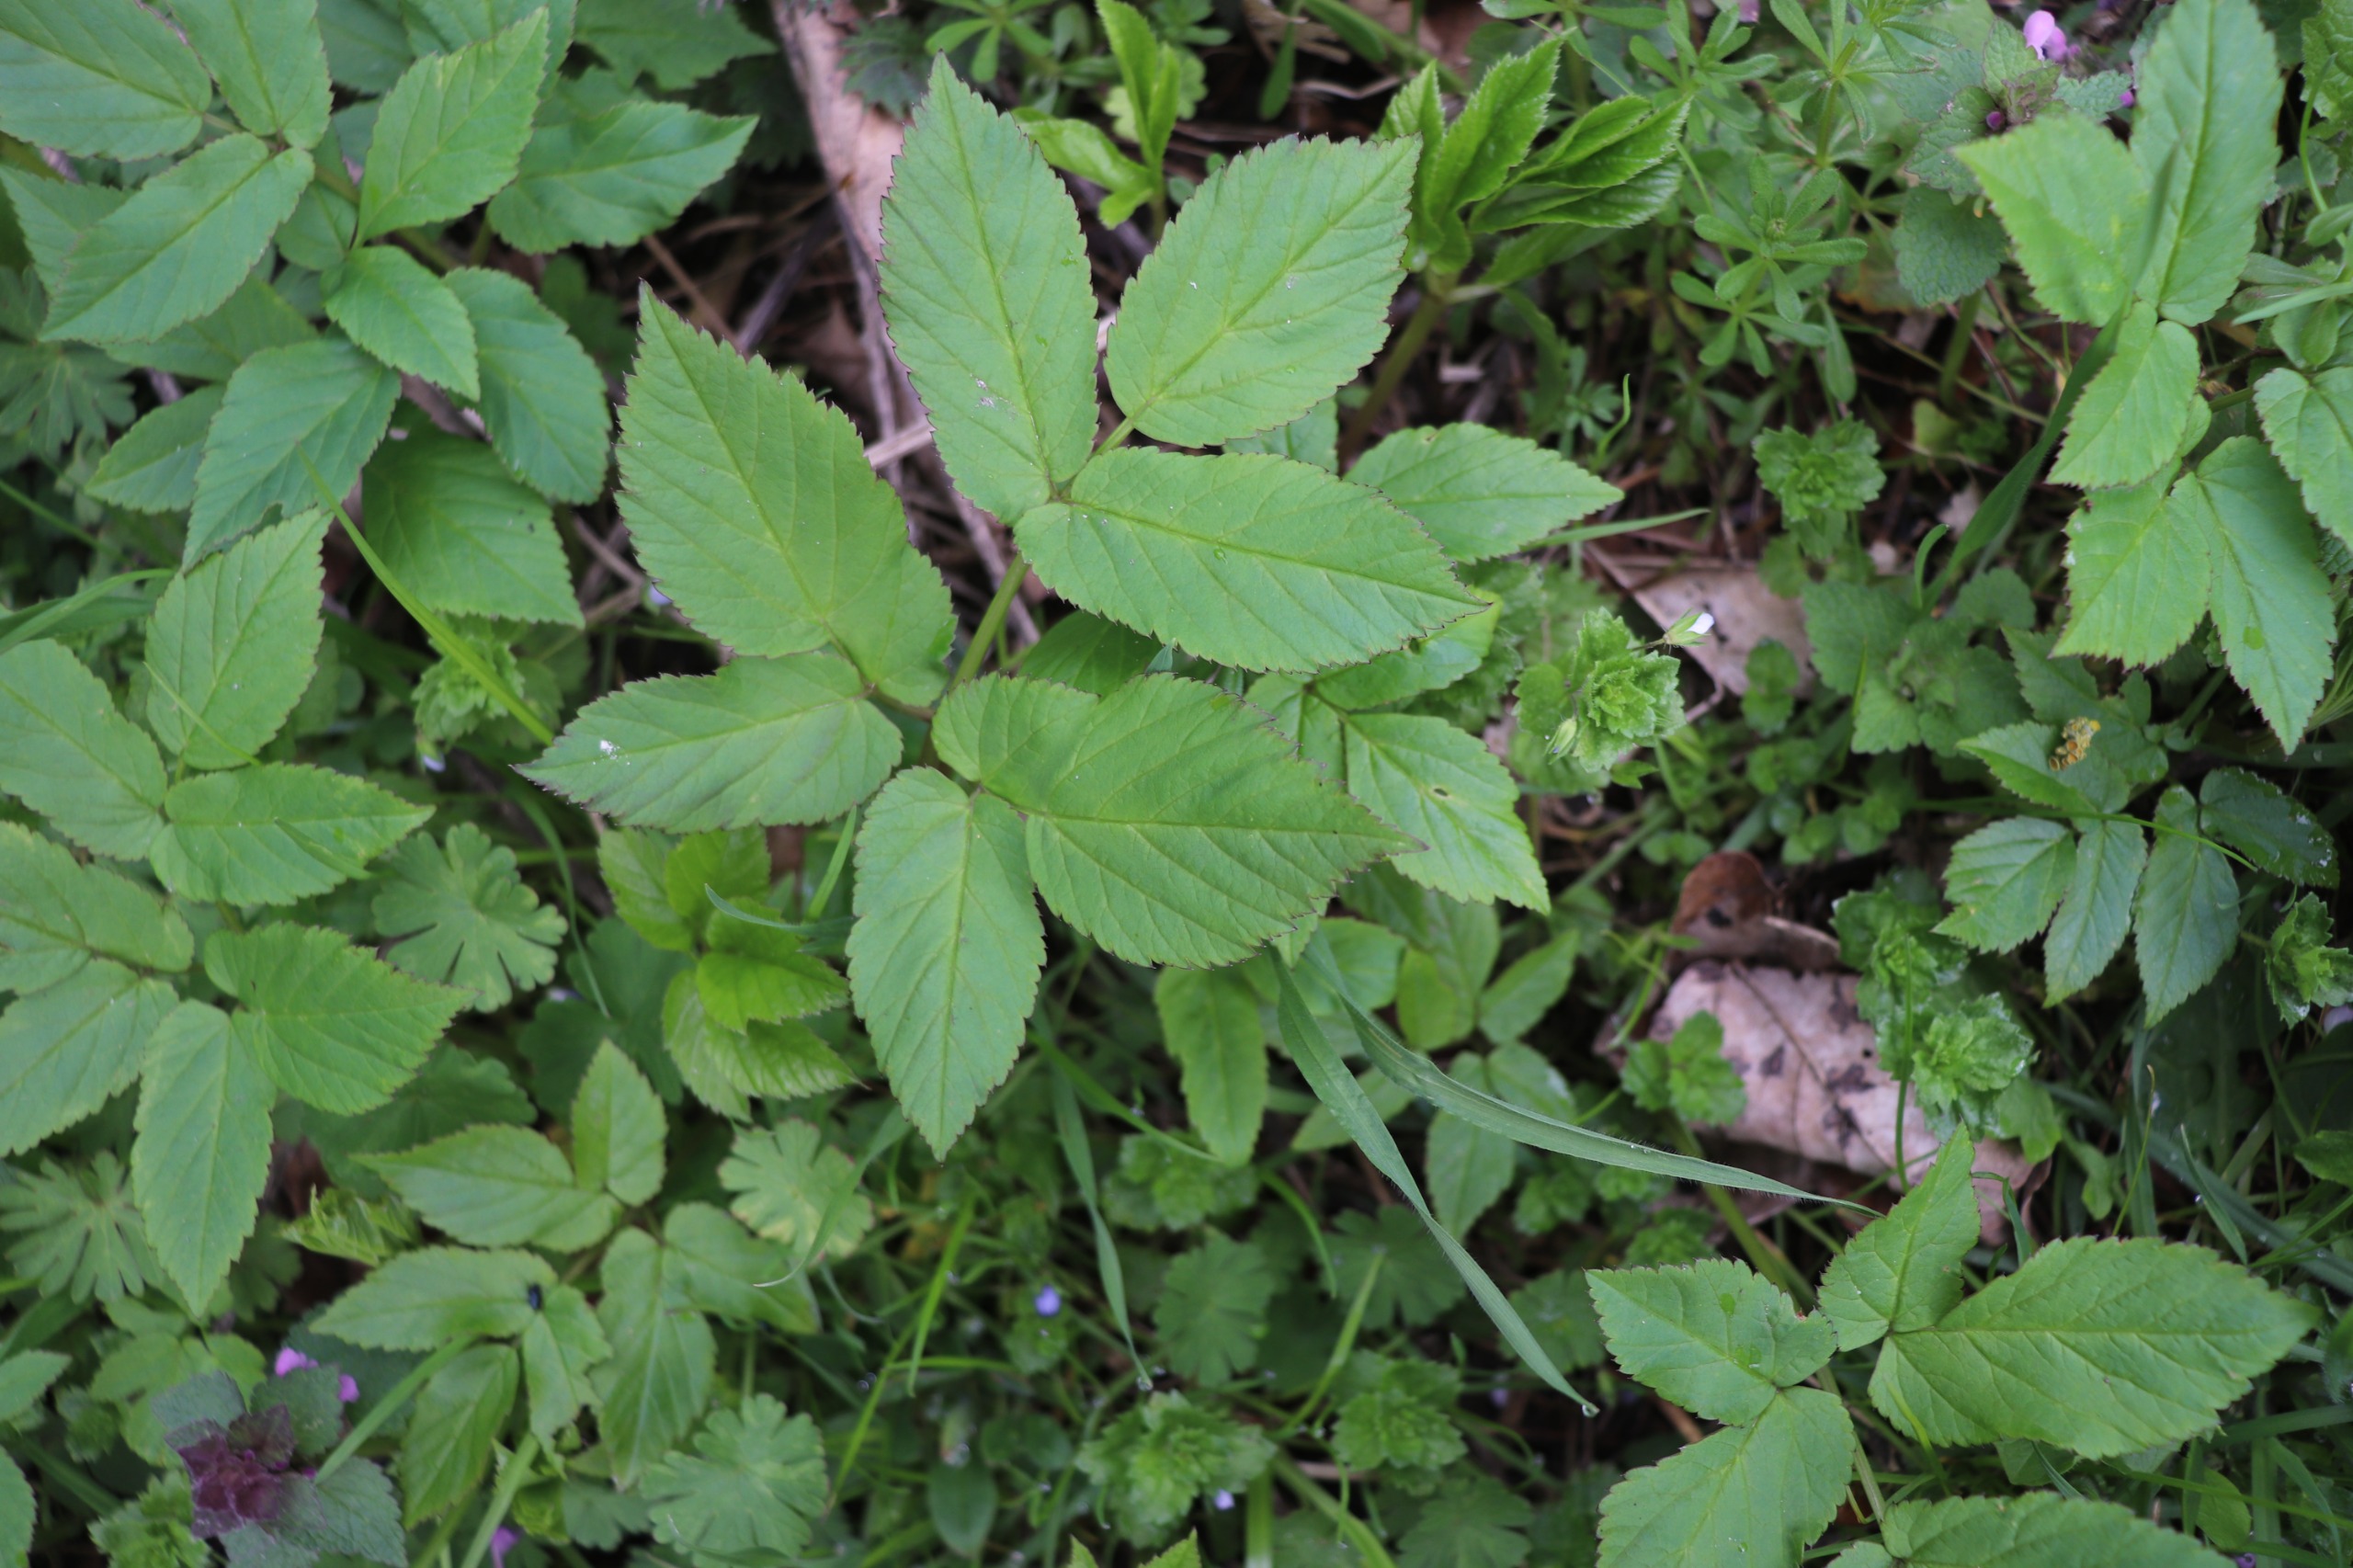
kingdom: Plantae
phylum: Tracheophyta
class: Magnoliopsida
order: Apiales
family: Apiaceae
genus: Aegopodium
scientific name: Aegopodium podagraria
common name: Skvalderkål
